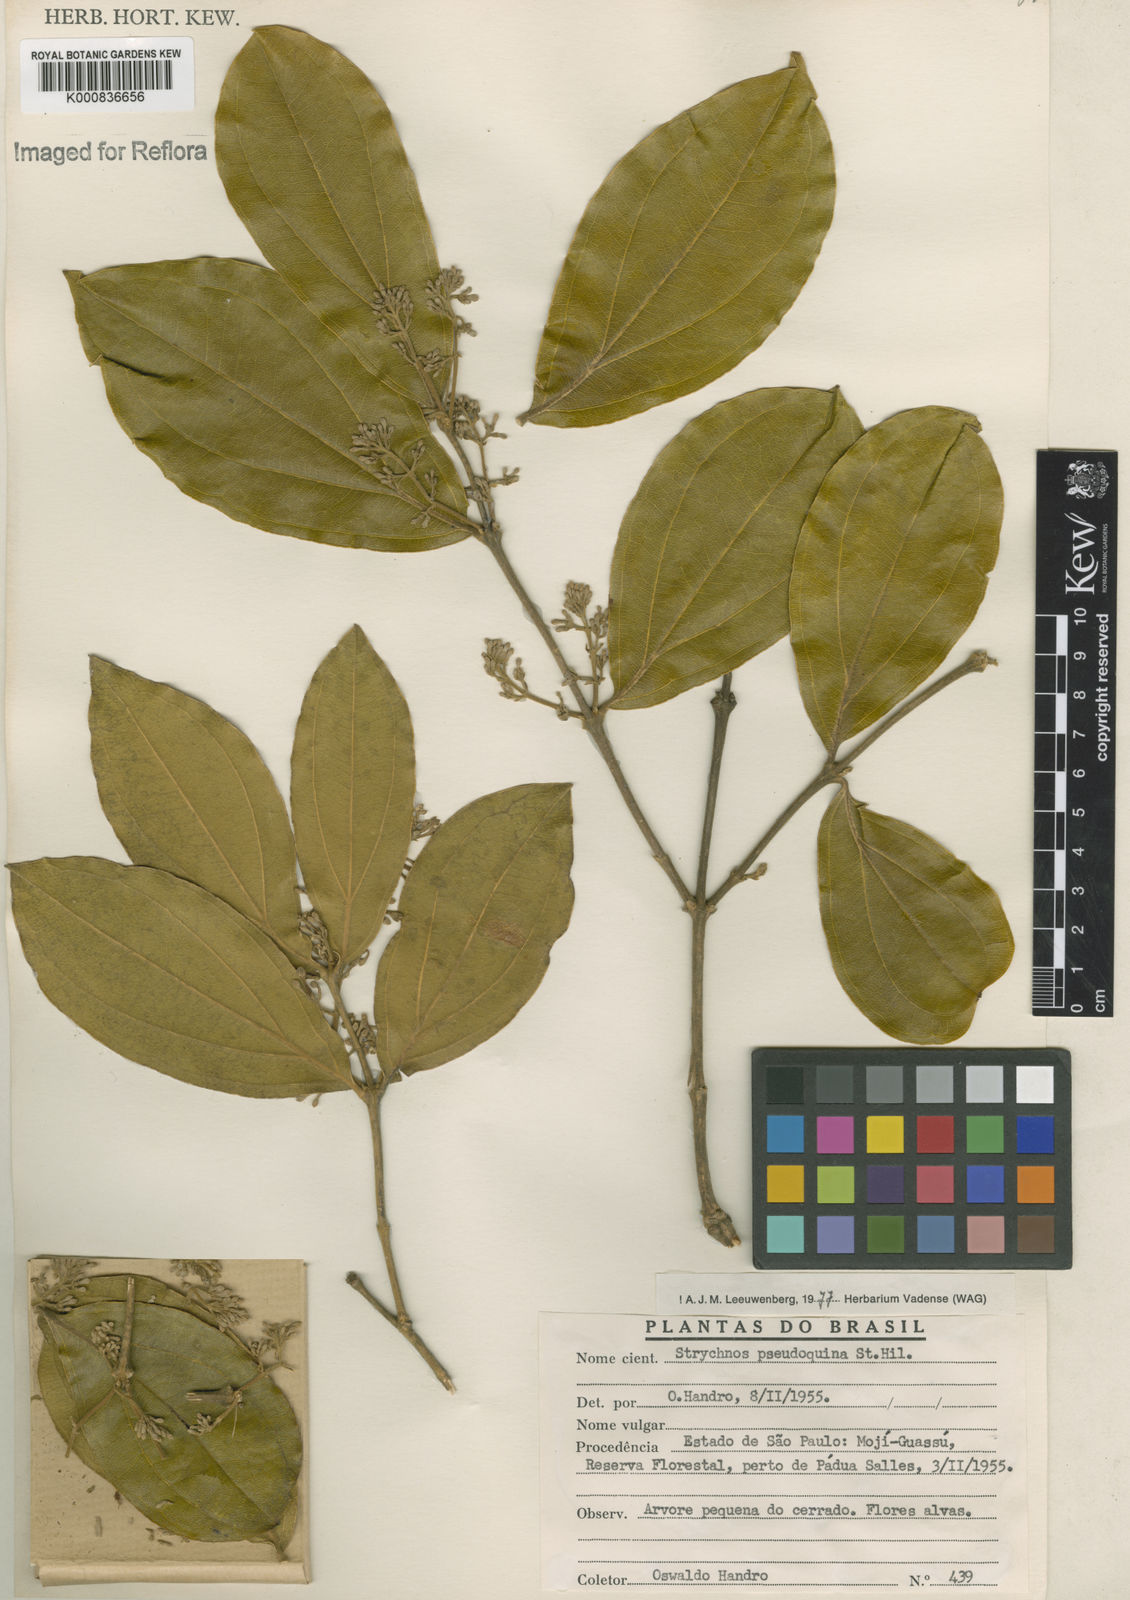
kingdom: Plantae
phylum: Tracheophyta
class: Magnoliopsida
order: Gentianales
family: Loganiaceae
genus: Strychnos
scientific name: Strychnos pseudoquina
